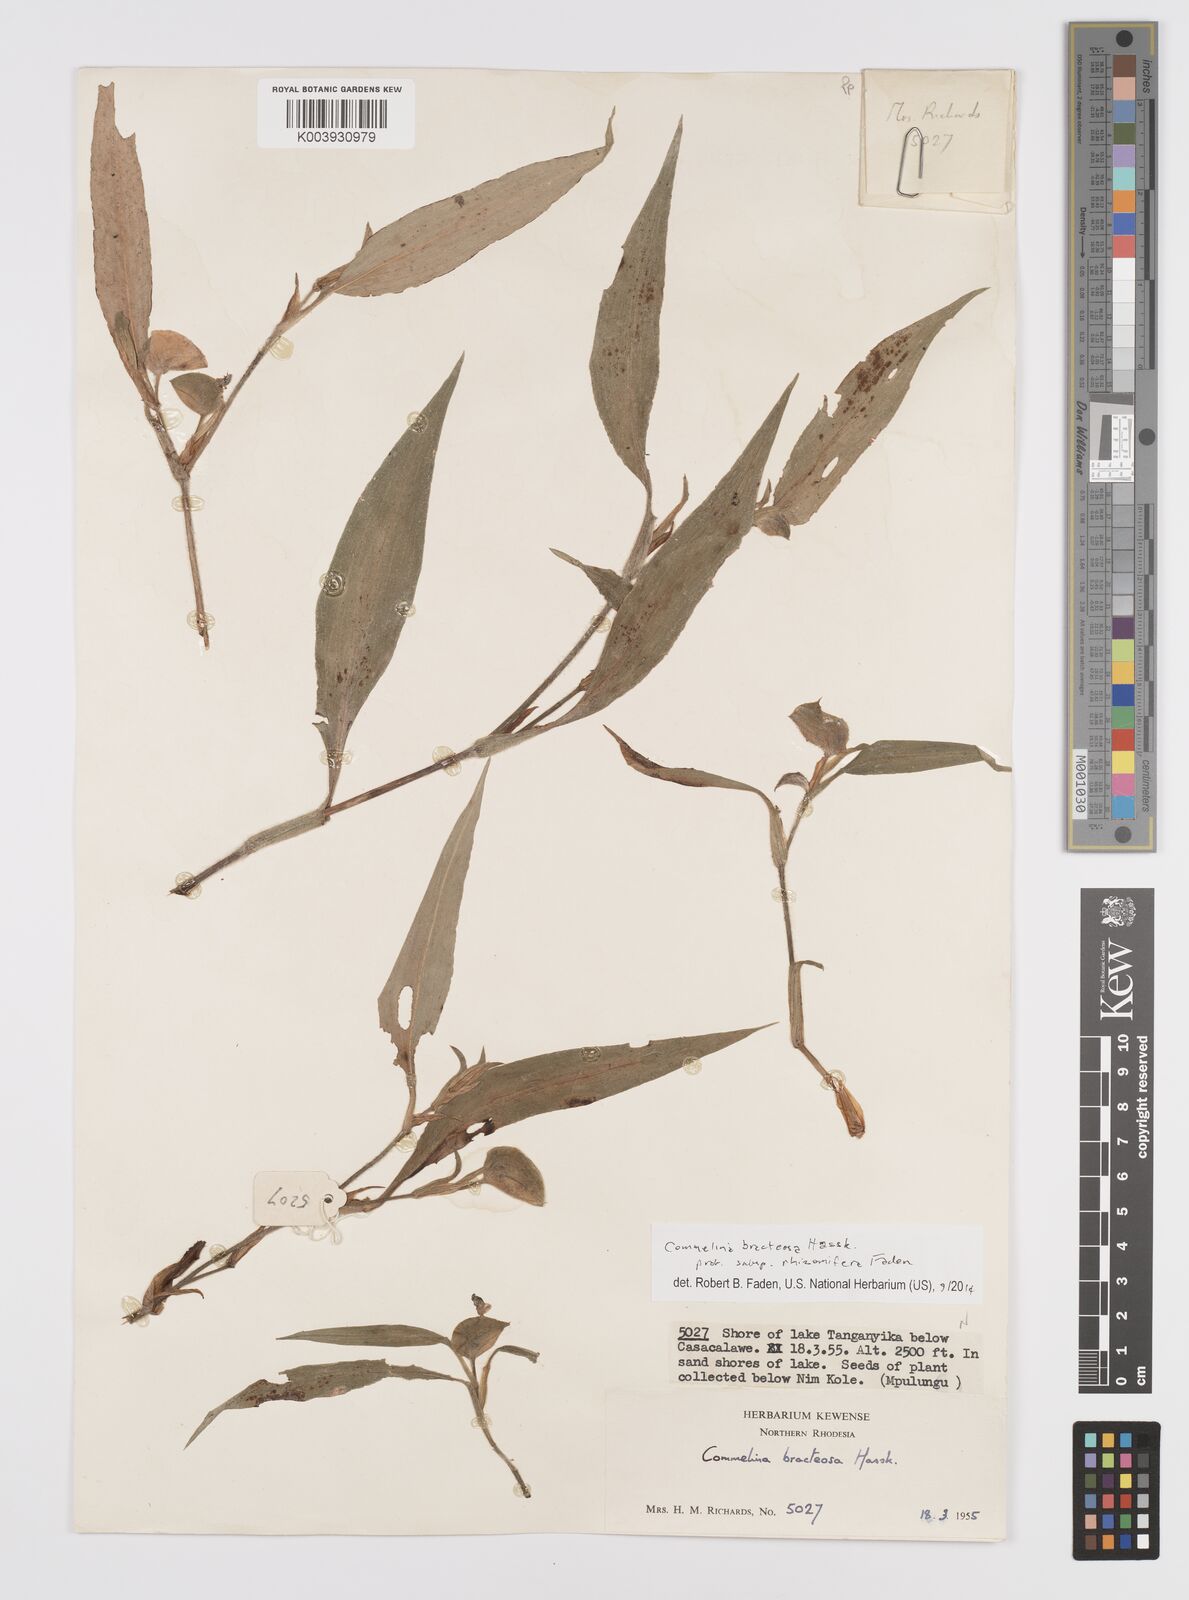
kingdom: Plantae
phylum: Tracheophyta
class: Liliopsida
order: Commelinales
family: Commelinaceae
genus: Commelina
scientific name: Commelina bracteosa
